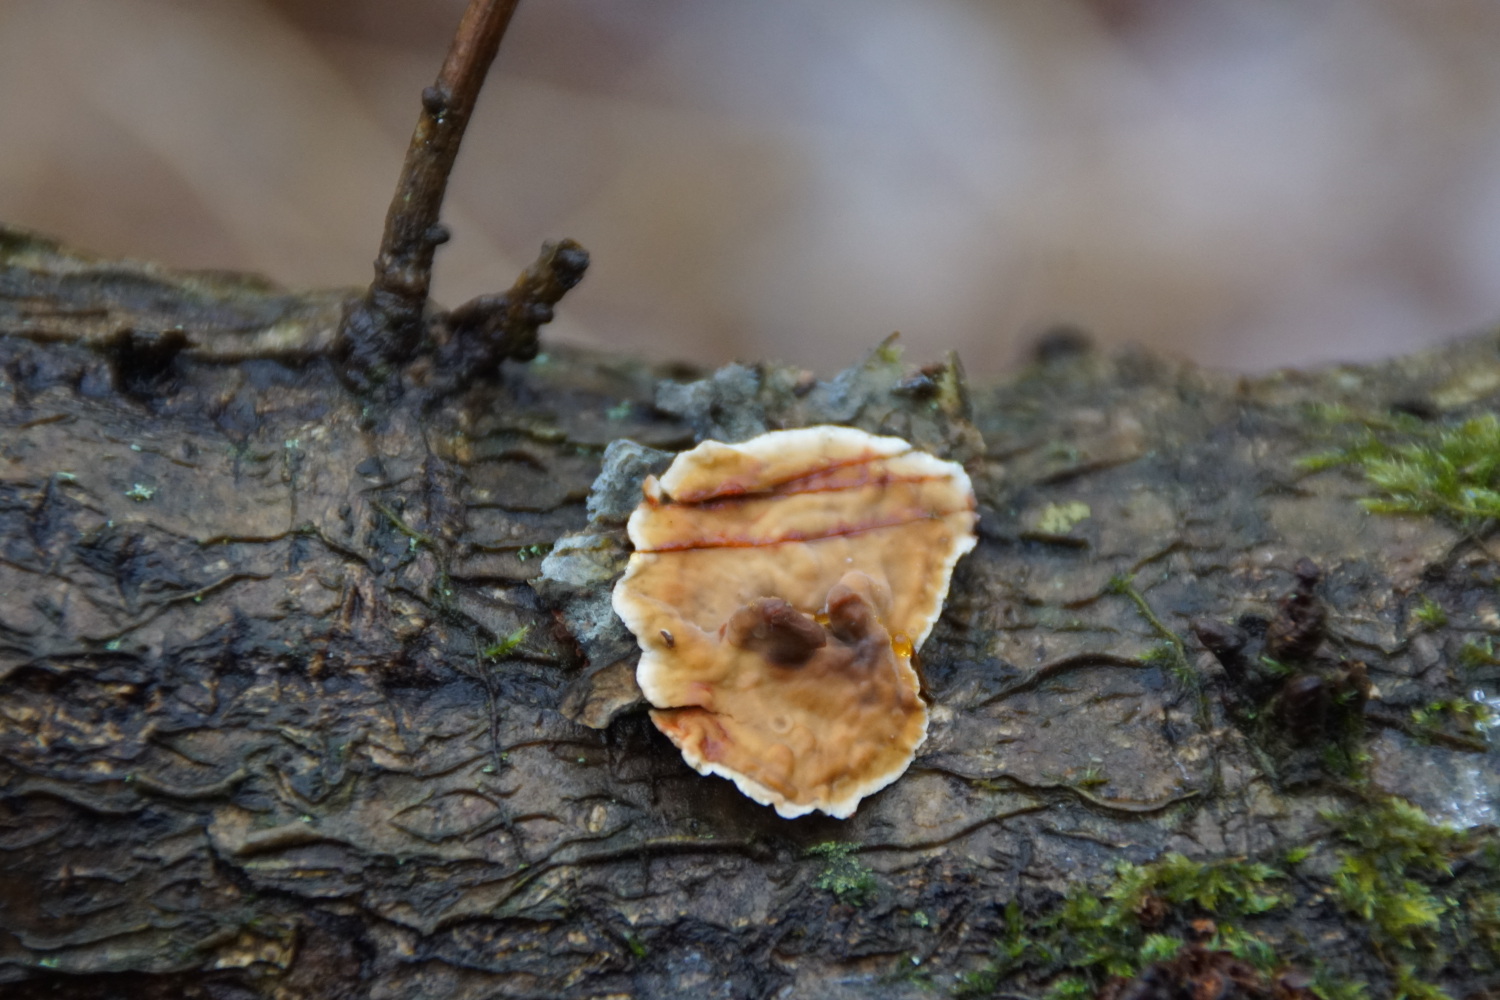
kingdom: Fungi
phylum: Basidiomycota
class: Agaricomycetes
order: Russulales
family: Stereaceae
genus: Stereum
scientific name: Stereum gausapatum
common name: tynd lædersvamp
